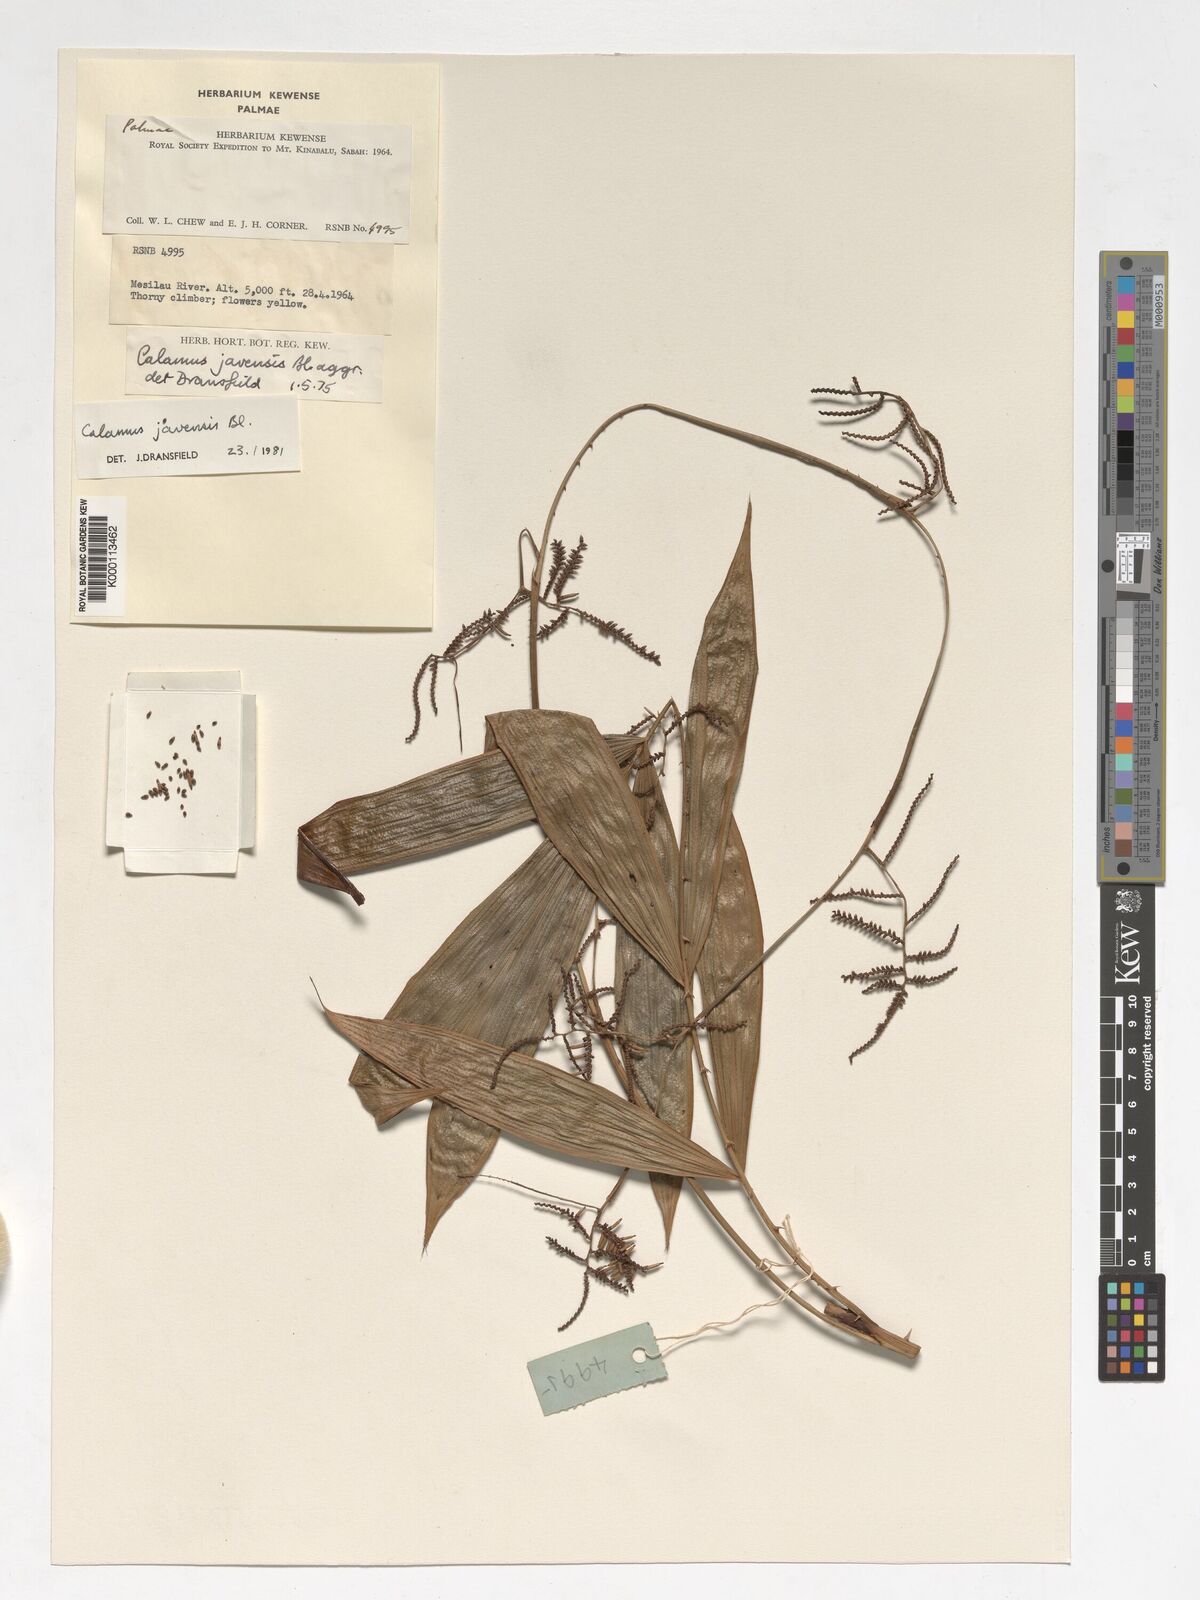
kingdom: Plantae
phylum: Tracheophyta
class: Liliopsida
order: Arecales
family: Arecaceae
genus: Calamus
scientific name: Calamus javensis
